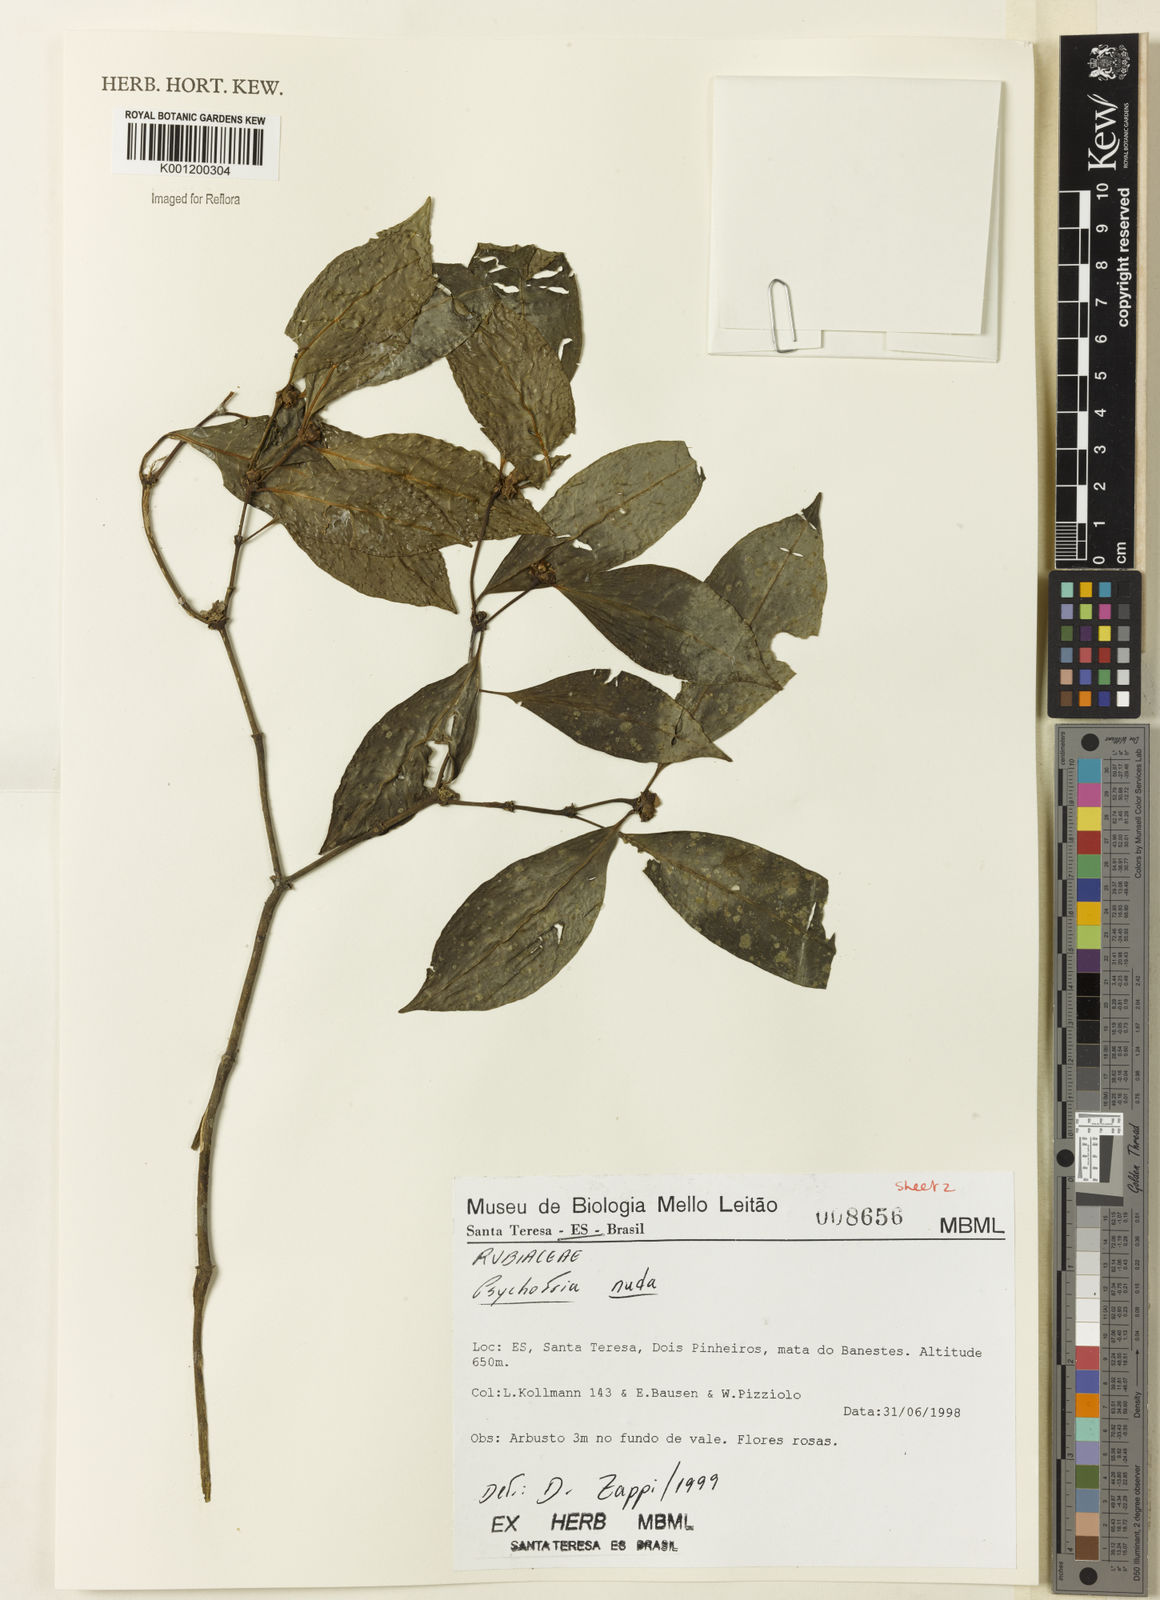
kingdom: Plantae
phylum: Tracheophyta
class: Magnoliopsida
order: Gentianales
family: Rubiaceae
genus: Psychotria
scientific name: Psychotria nuda
